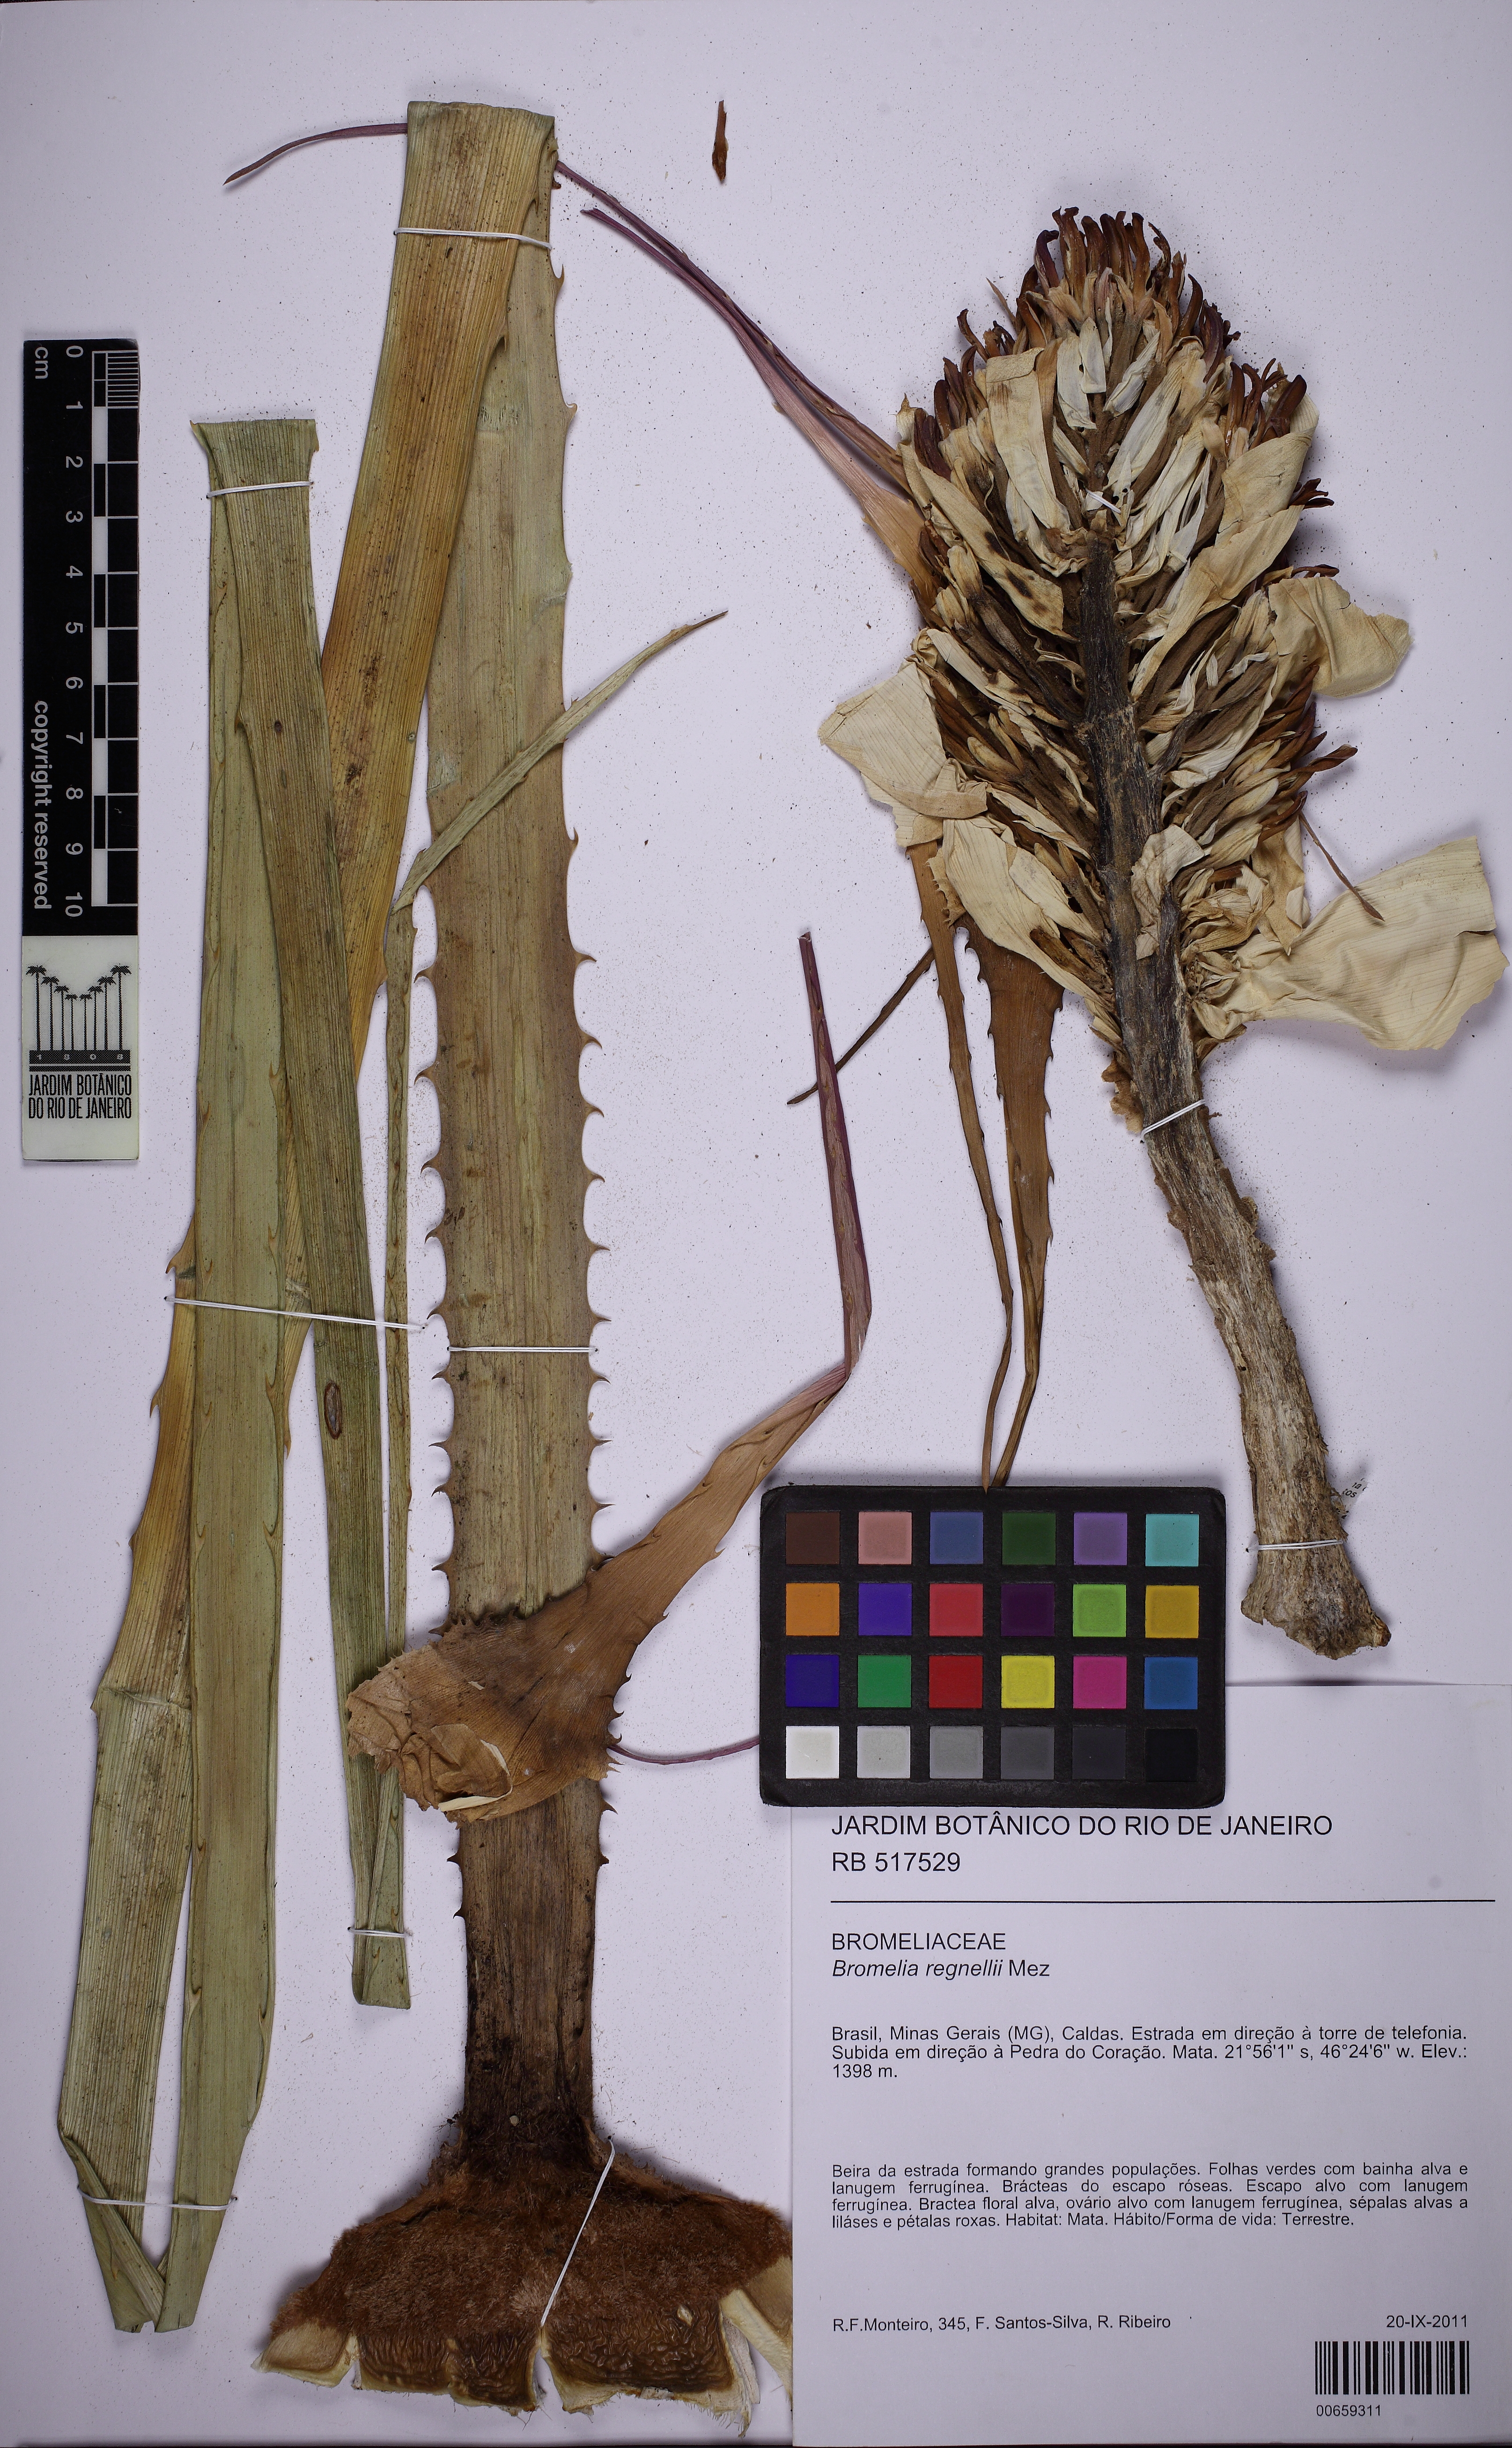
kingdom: Plantae
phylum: Tracheophyta
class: Liliopsida
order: Poales
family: Bromeliaceae
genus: Bromelia
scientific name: Bromelia regnellii
